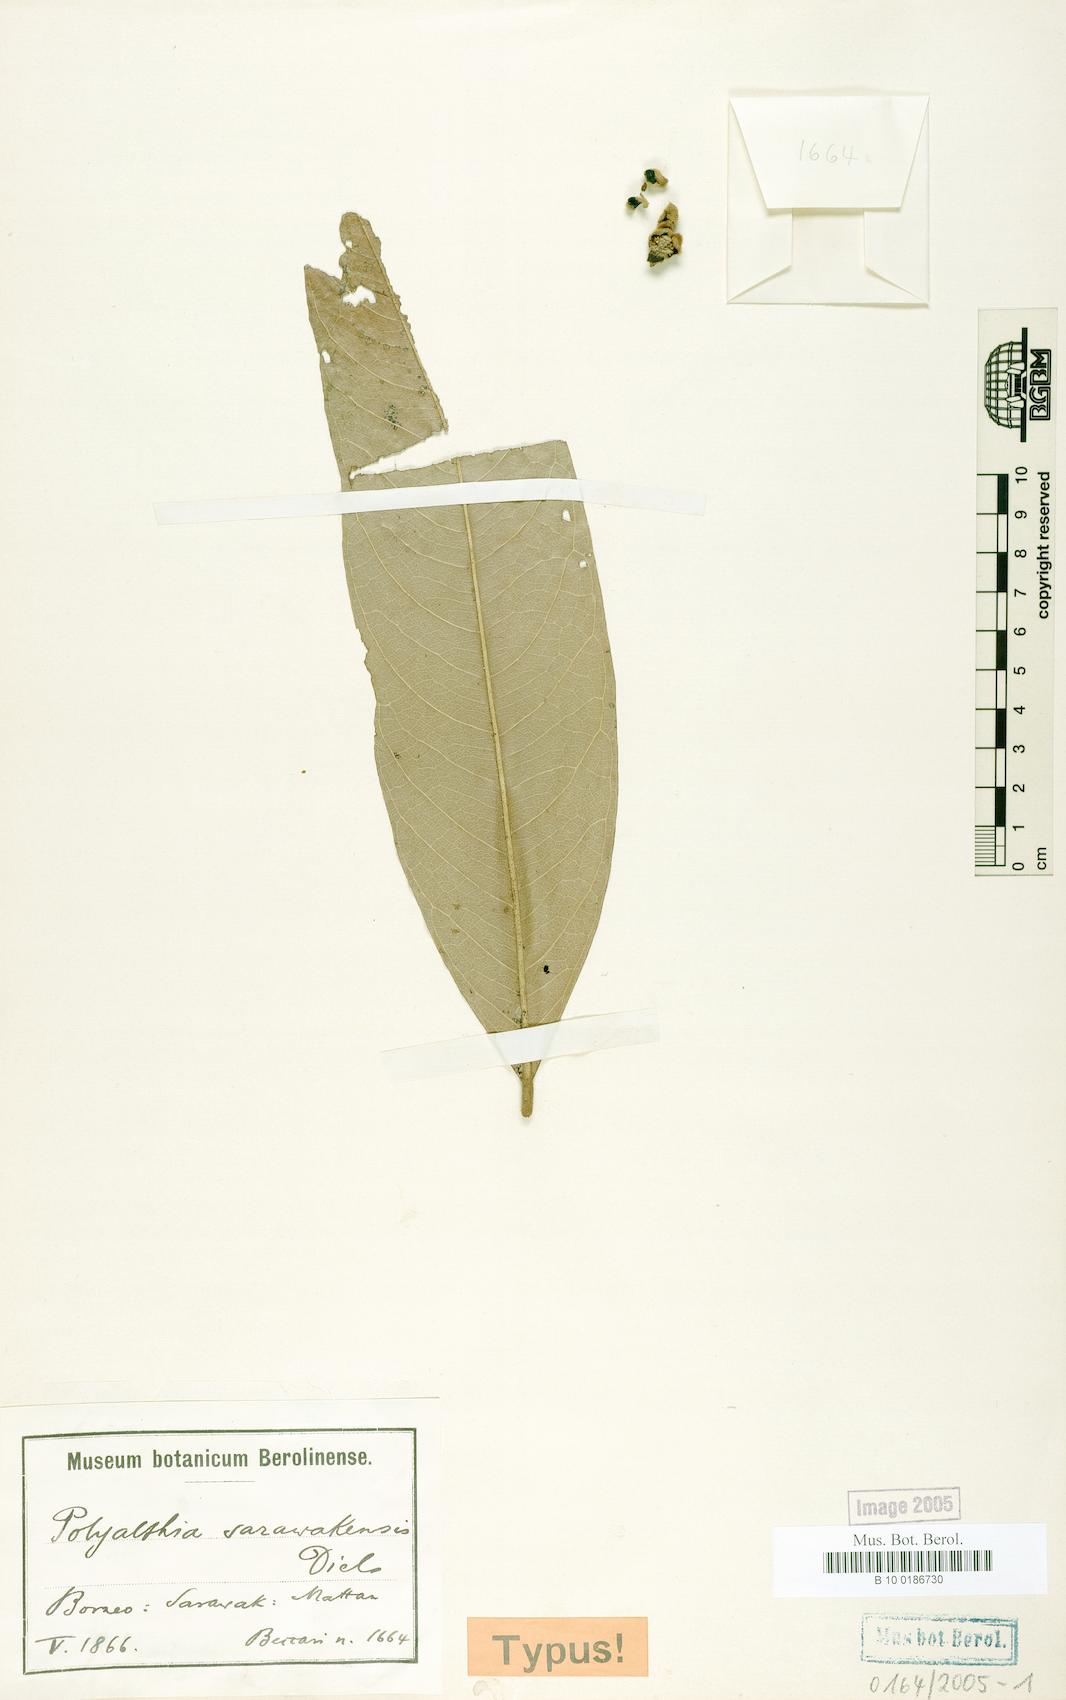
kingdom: Plantae
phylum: Tracheophyta
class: Magnoliopsida
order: Magnoliales
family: Annonaceae
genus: Polyalthia
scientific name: Polyalthia motleyana
